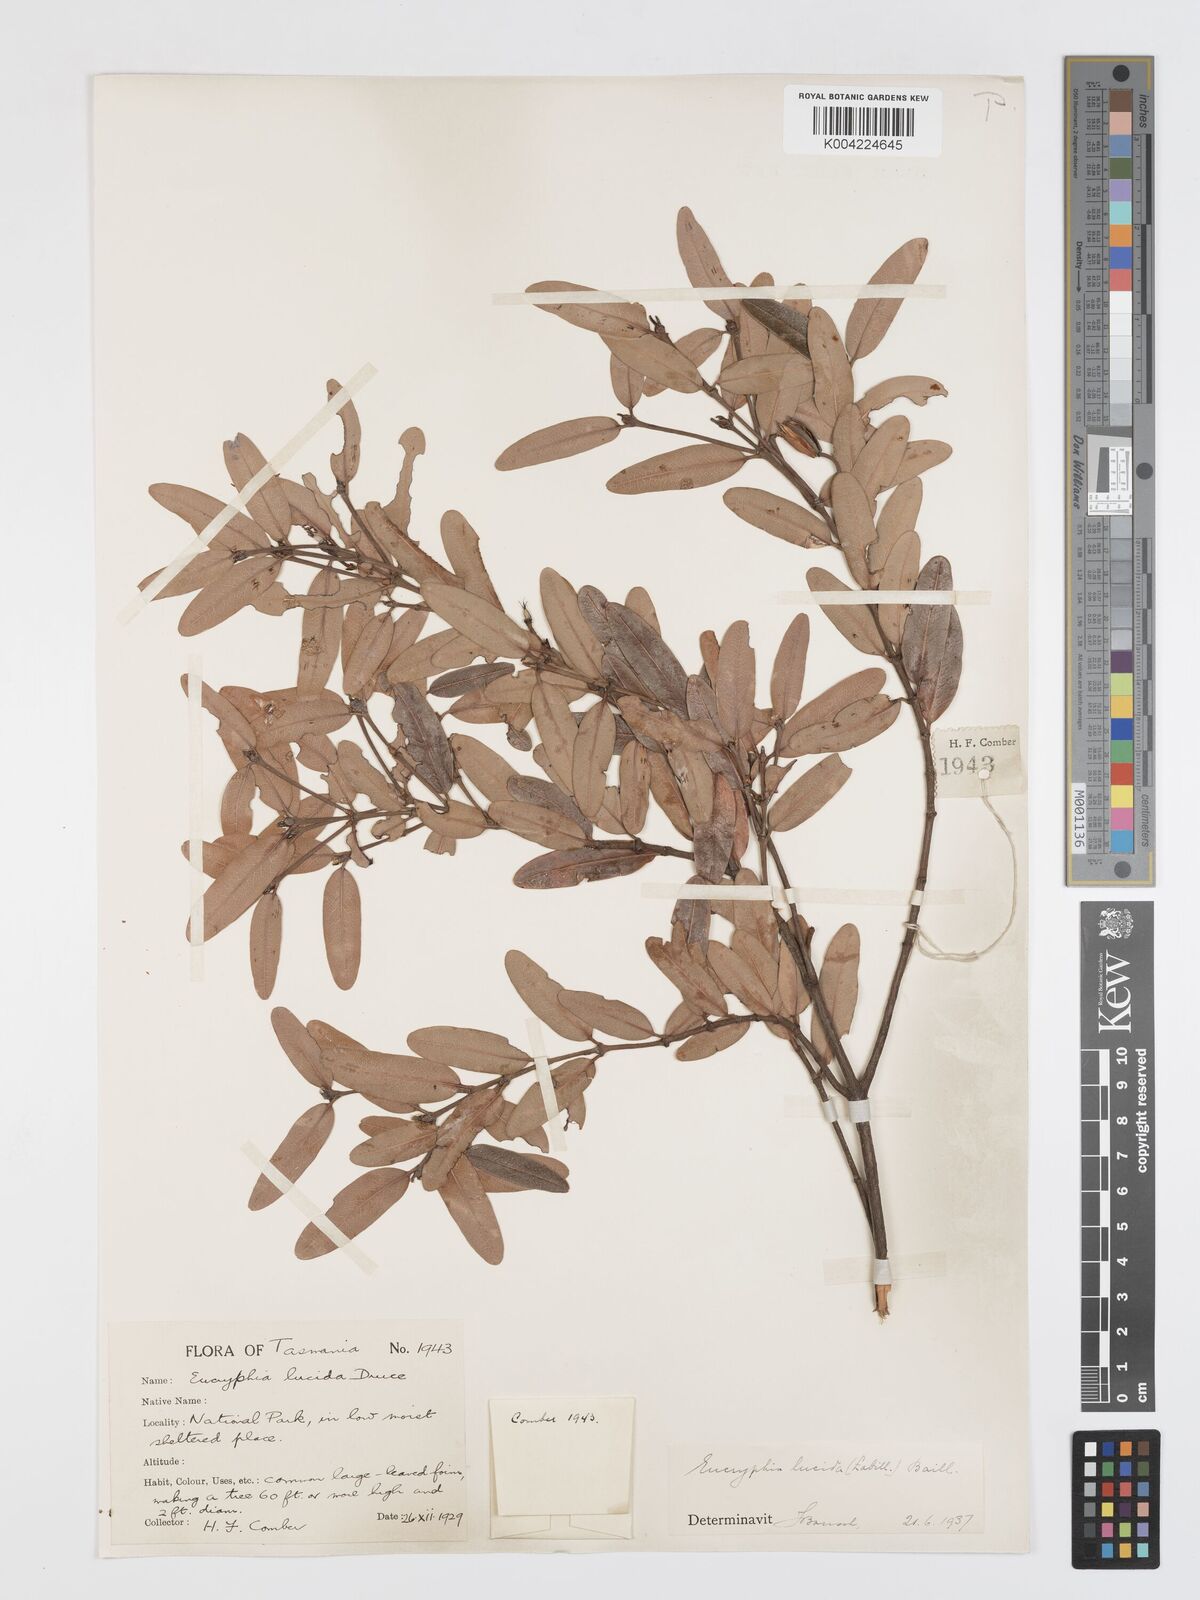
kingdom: Plantae
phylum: Tracheophyta
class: Magnoliopsida
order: Oxalidales
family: Cunoniaceae
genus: Eucryphia
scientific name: Eucryphia lucida
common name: Leatherwood
